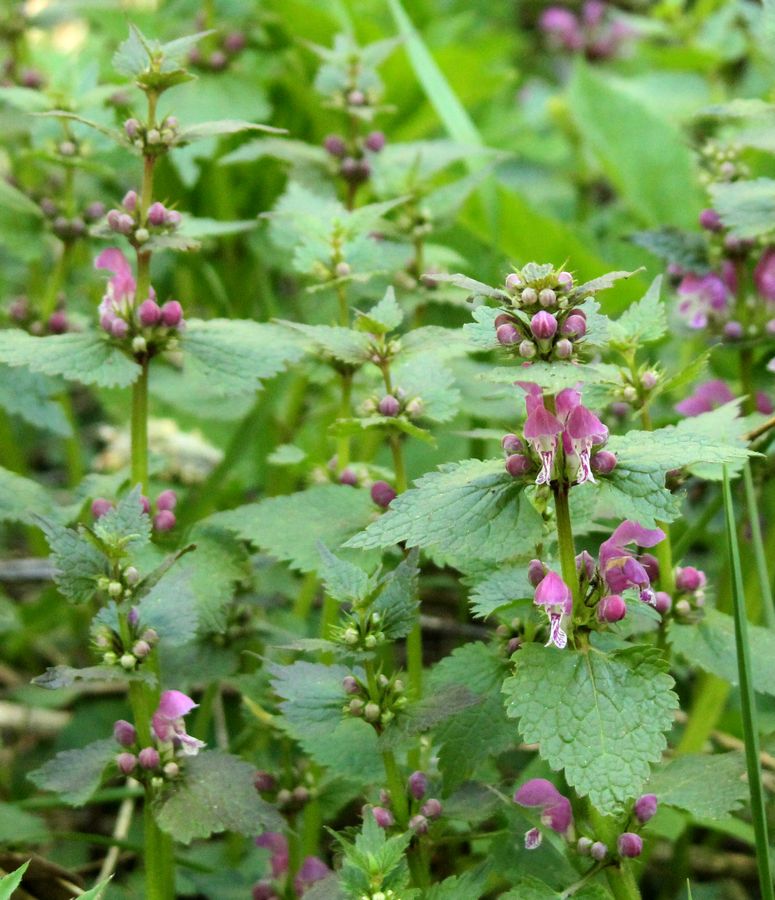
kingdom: Plantae
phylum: Tracheophyta
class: Magnoliopsida
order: Lamiales
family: Lamiaceae
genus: Lamium
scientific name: Lamium
